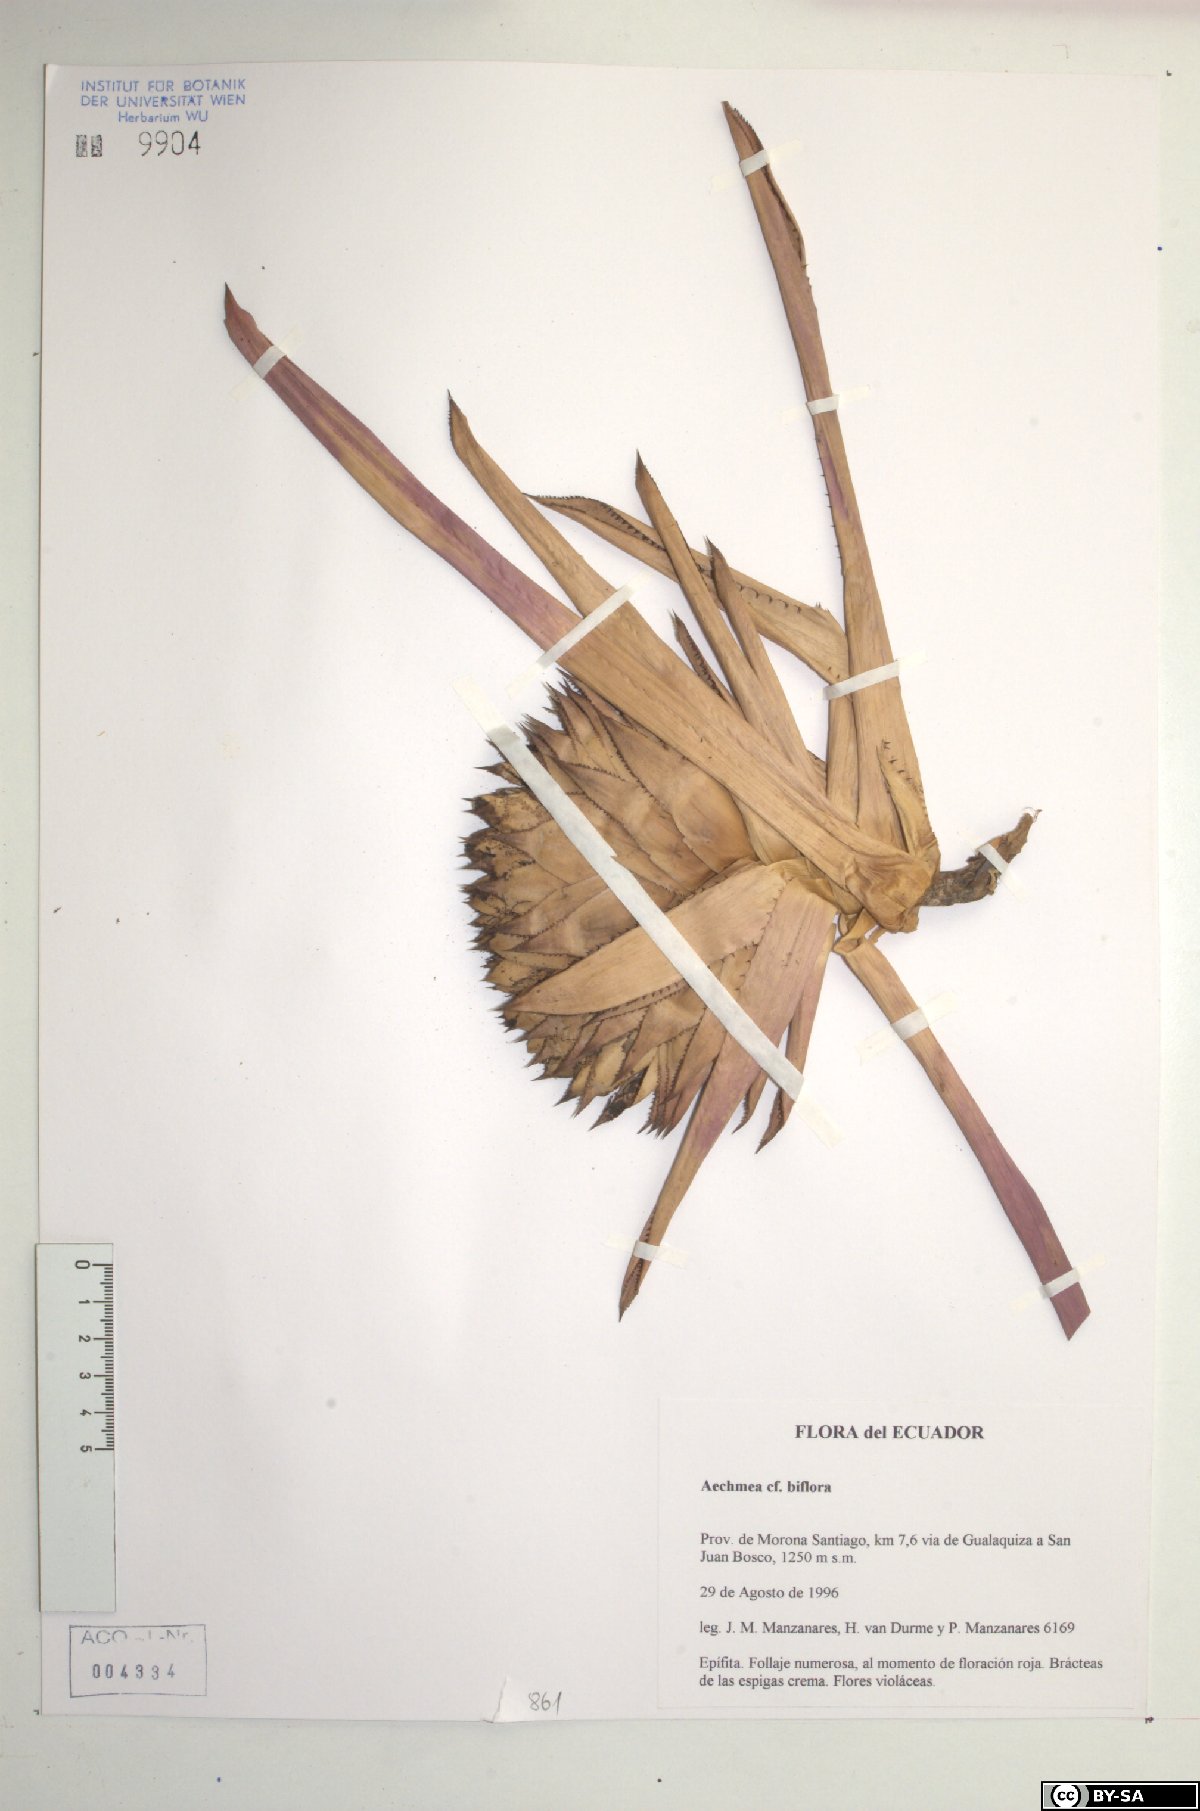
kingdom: Plantae
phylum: Tracheophyta
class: Liliopsida
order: Poales
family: Bromeliaceae
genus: Aechmea
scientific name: Aechmea biflora
